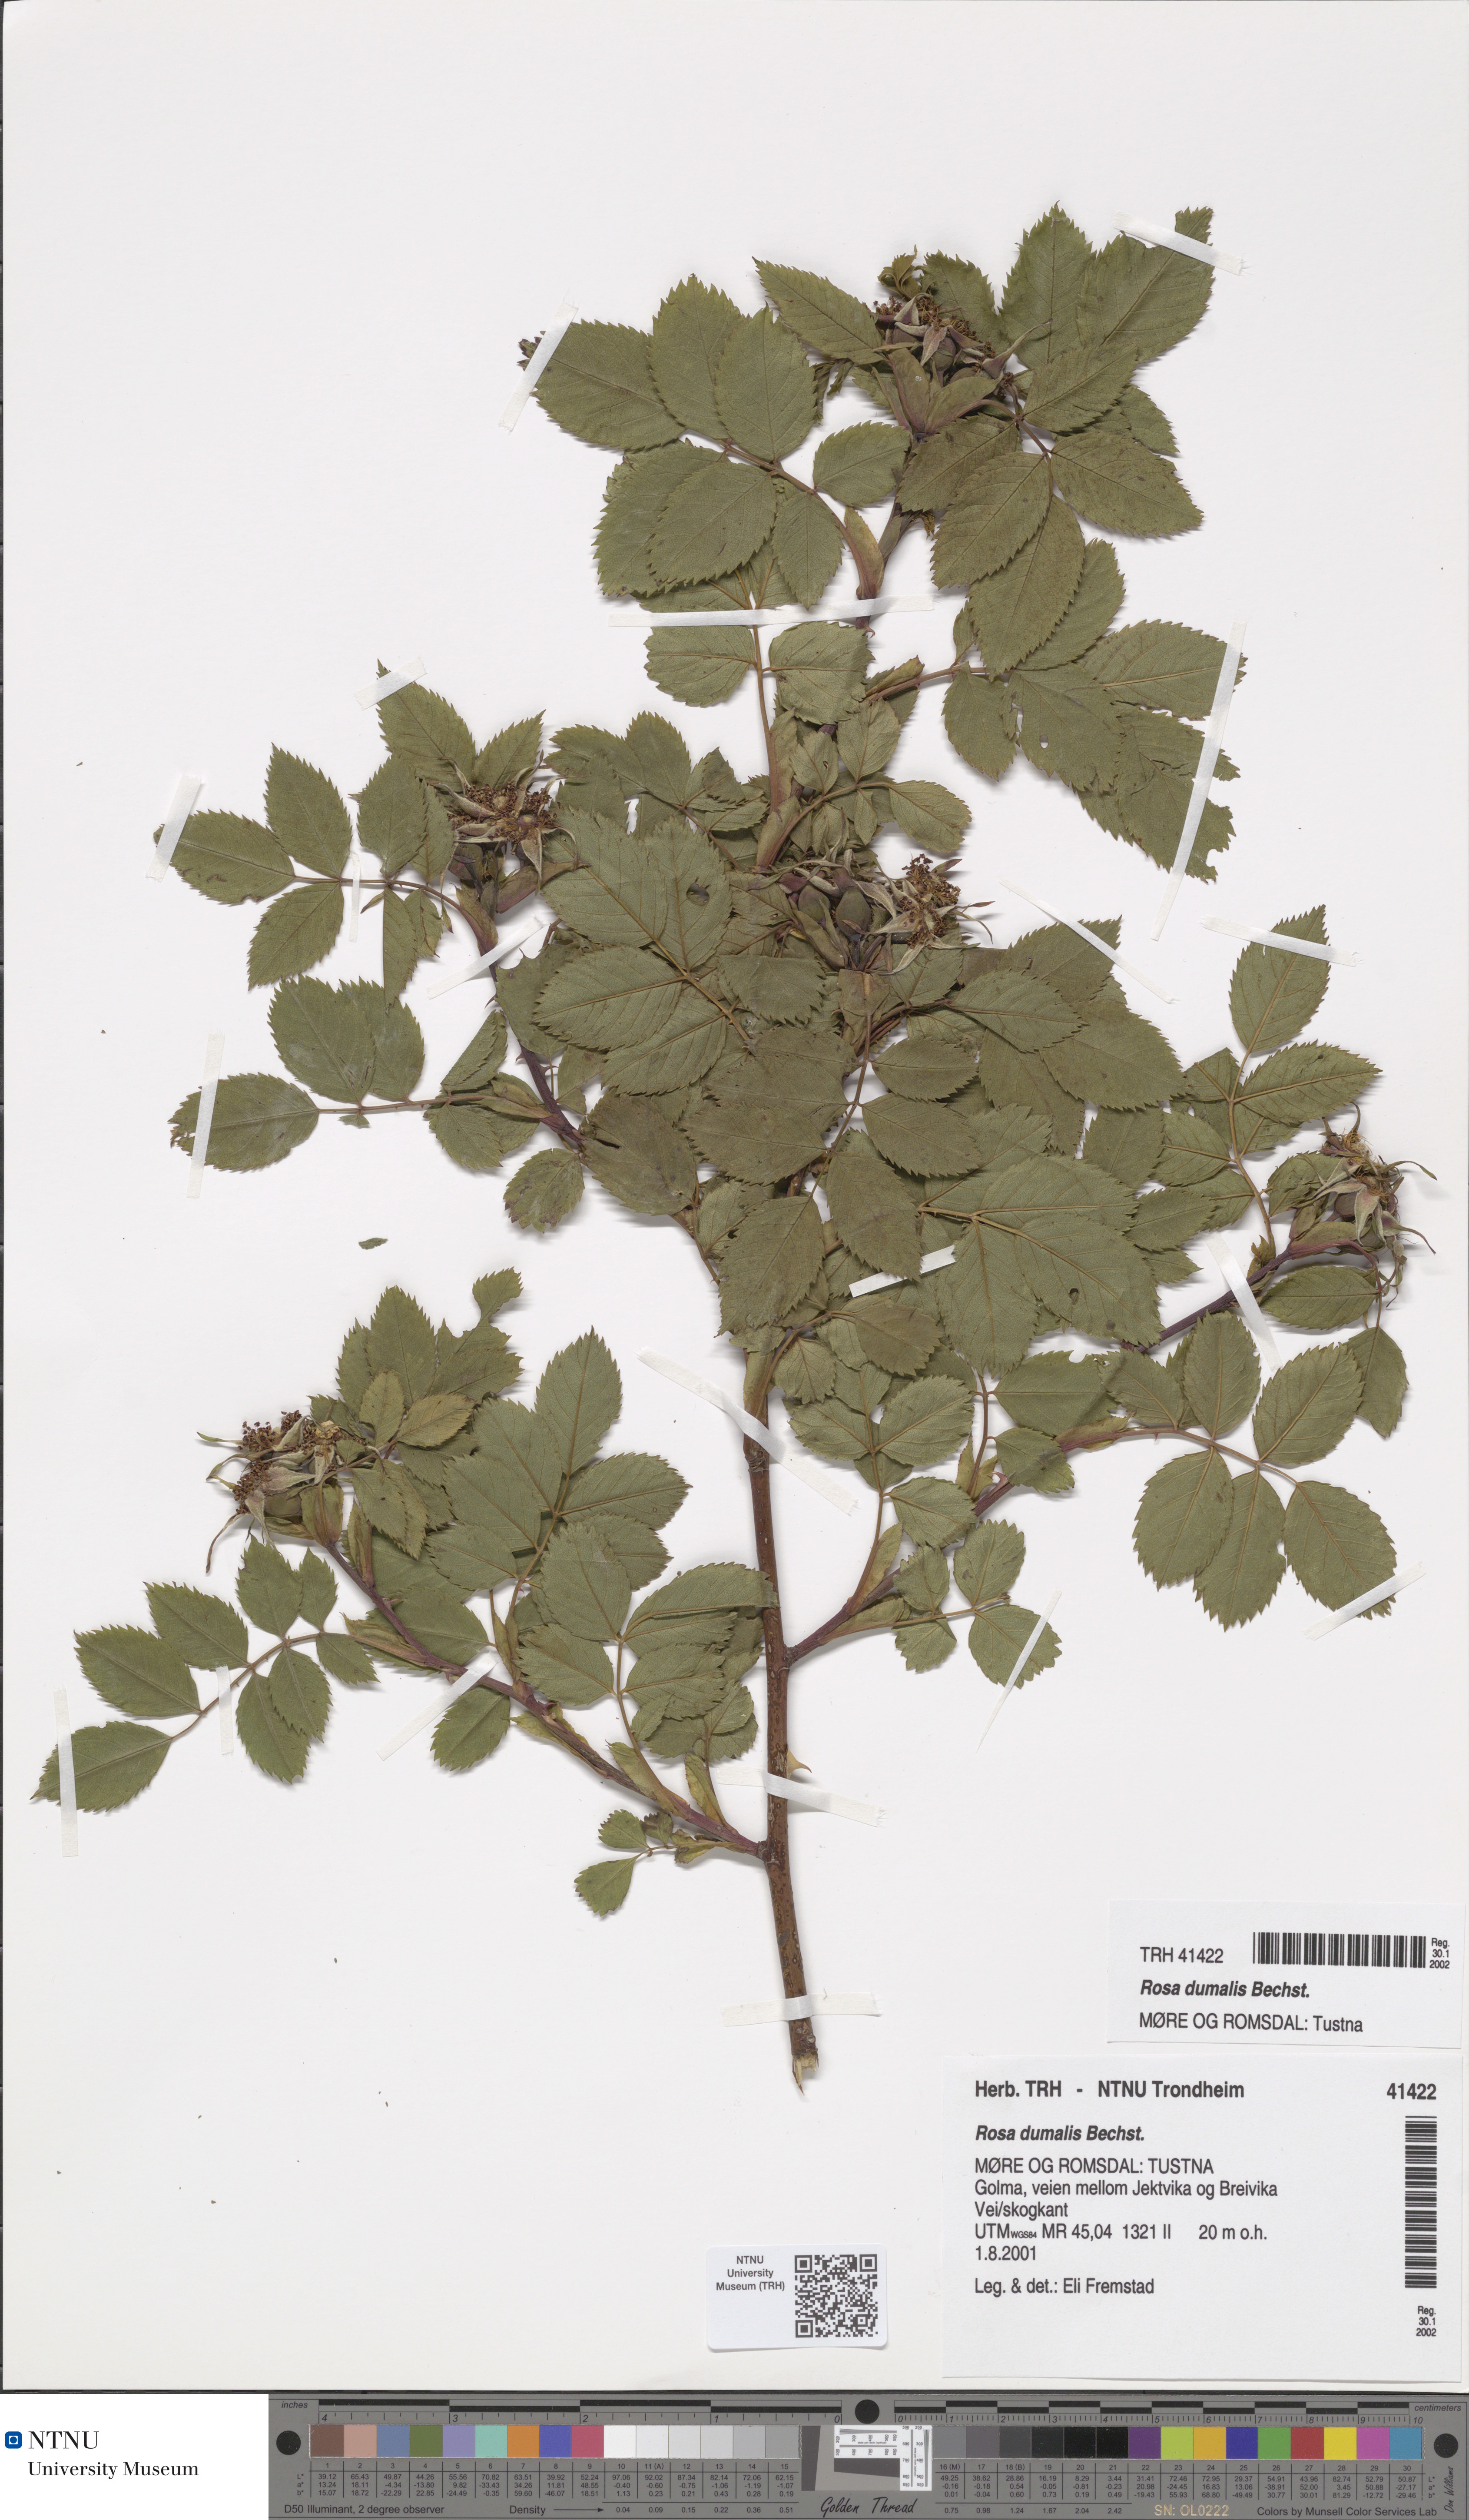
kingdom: Plantae
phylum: Tracheophyta
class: Magnoliopsida
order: Rosales
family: Rosaceae
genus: Rosa
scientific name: Rosa dumalis
